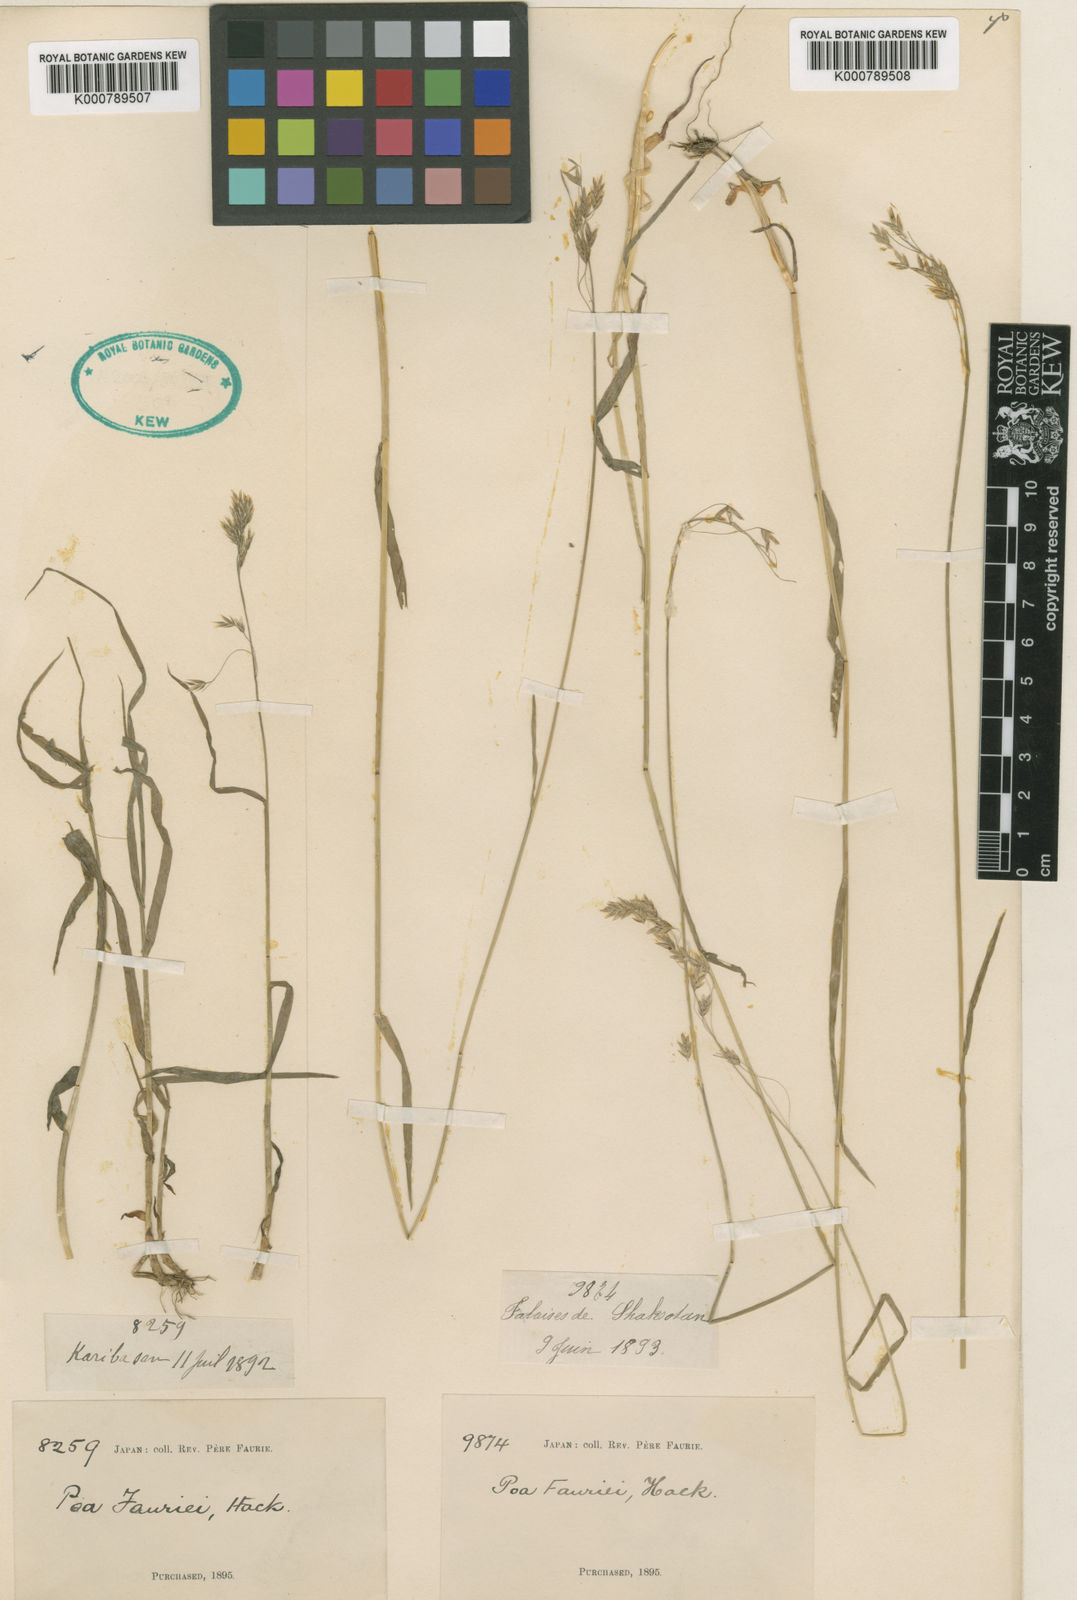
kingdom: Plantae
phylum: Tracheophyta
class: Liliopsida
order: Poales
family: Poaceae
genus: Poa
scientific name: Poa fauriei
